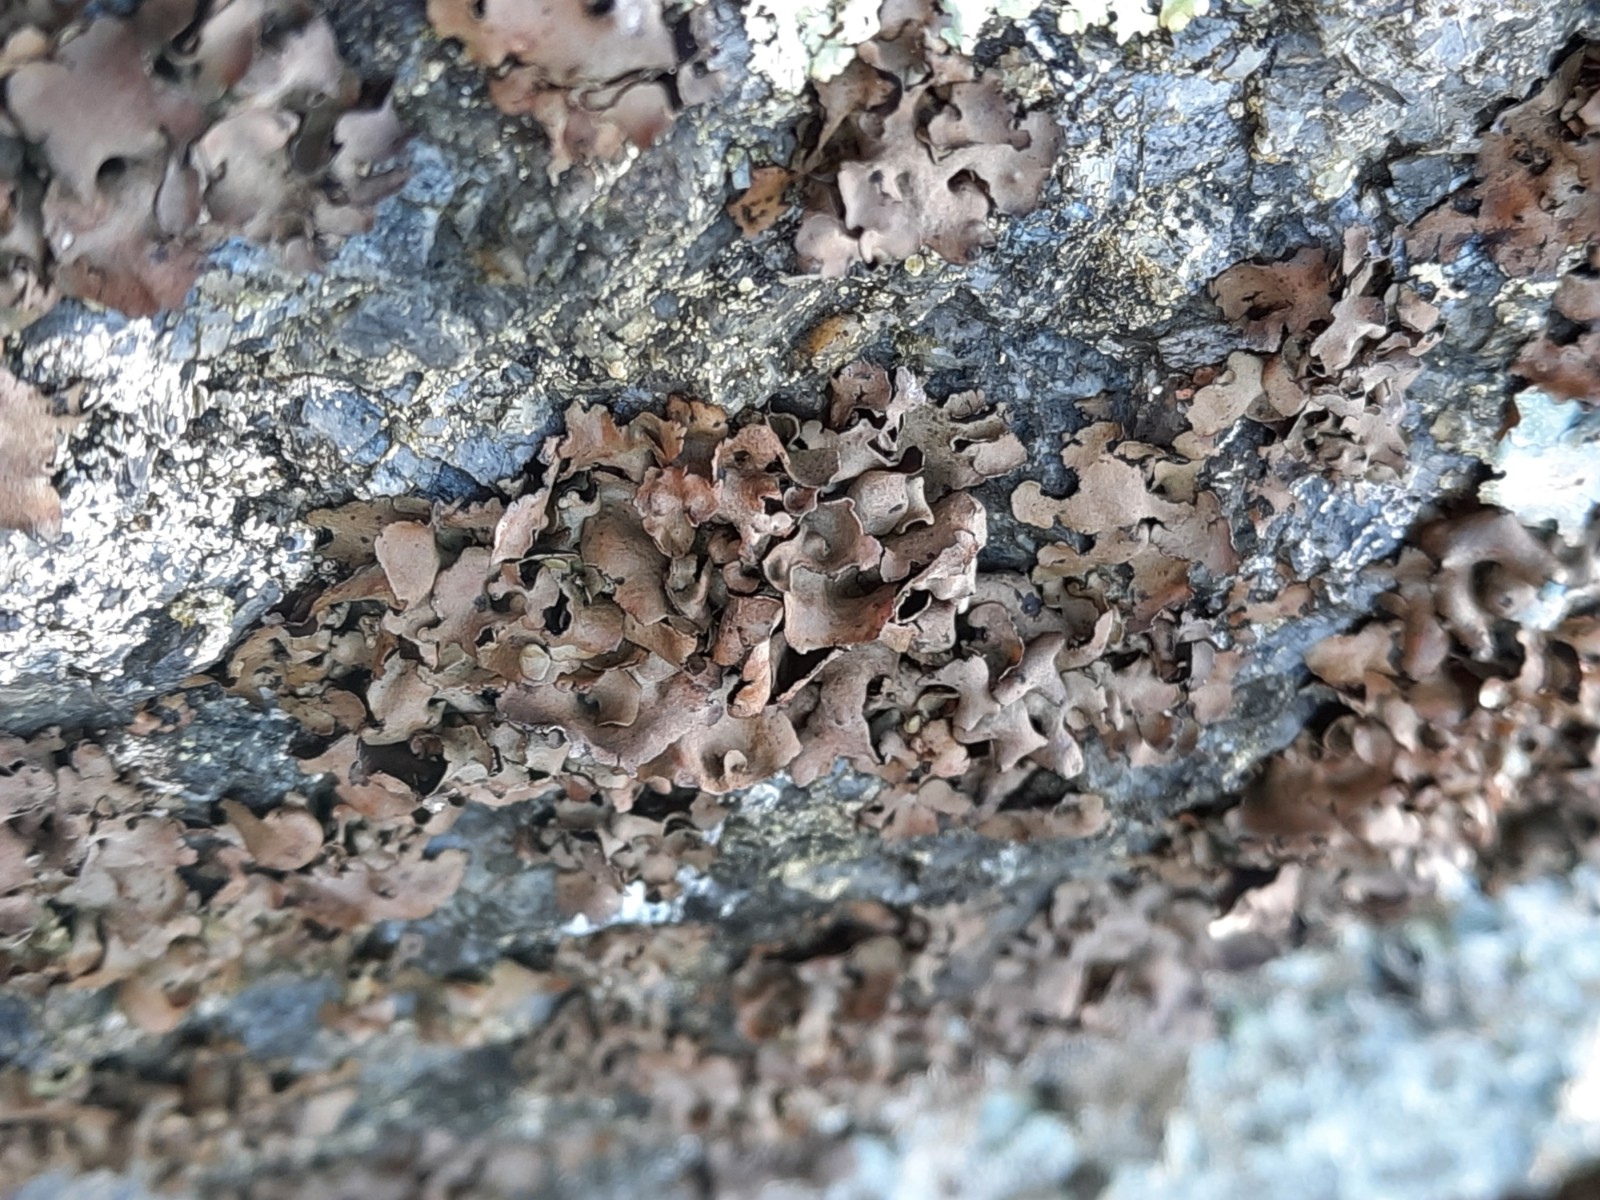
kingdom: Fungi
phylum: Ascomycota
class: Lecanoromycetes
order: Umbilicariales
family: Umbilicariaceae
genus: Umbilicaria
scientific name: Umbilicaria polyphylla
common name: glat navlelav
